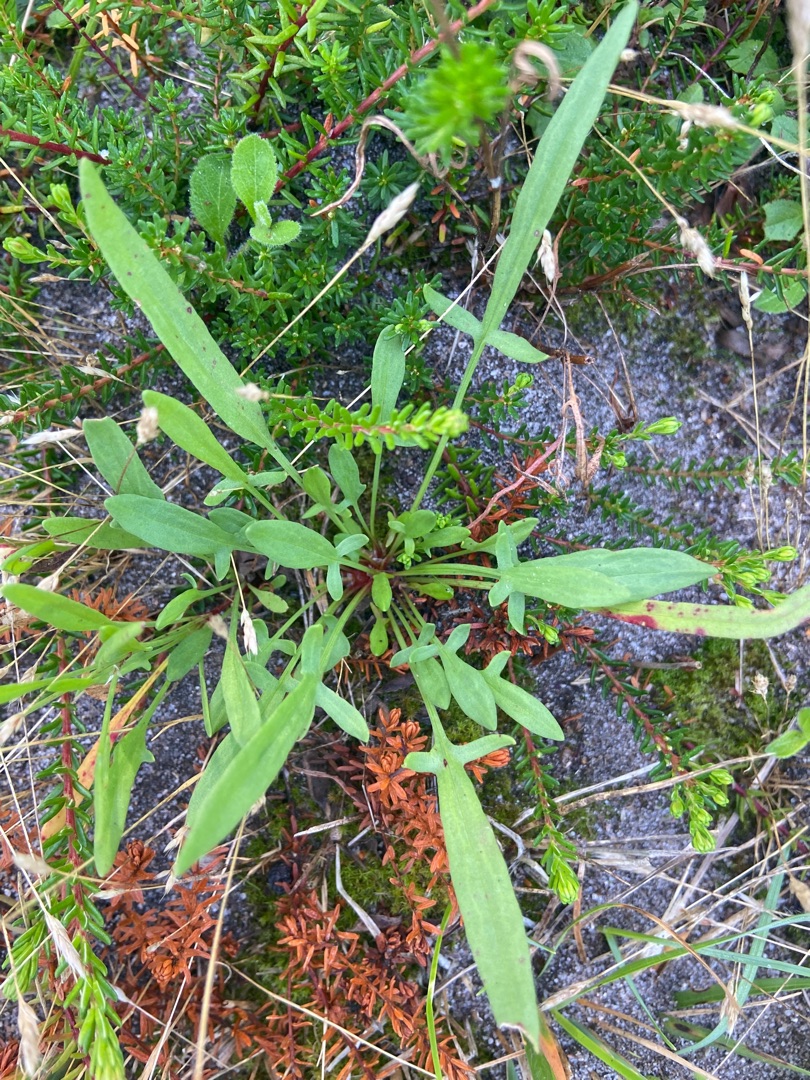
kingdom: Plantae
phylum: Tracheophyta
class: Magnoliopsida
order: Caryophyllales
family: Polygonaceae
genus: Rumex
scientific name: Rumex acetosella
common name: Rødknæ
